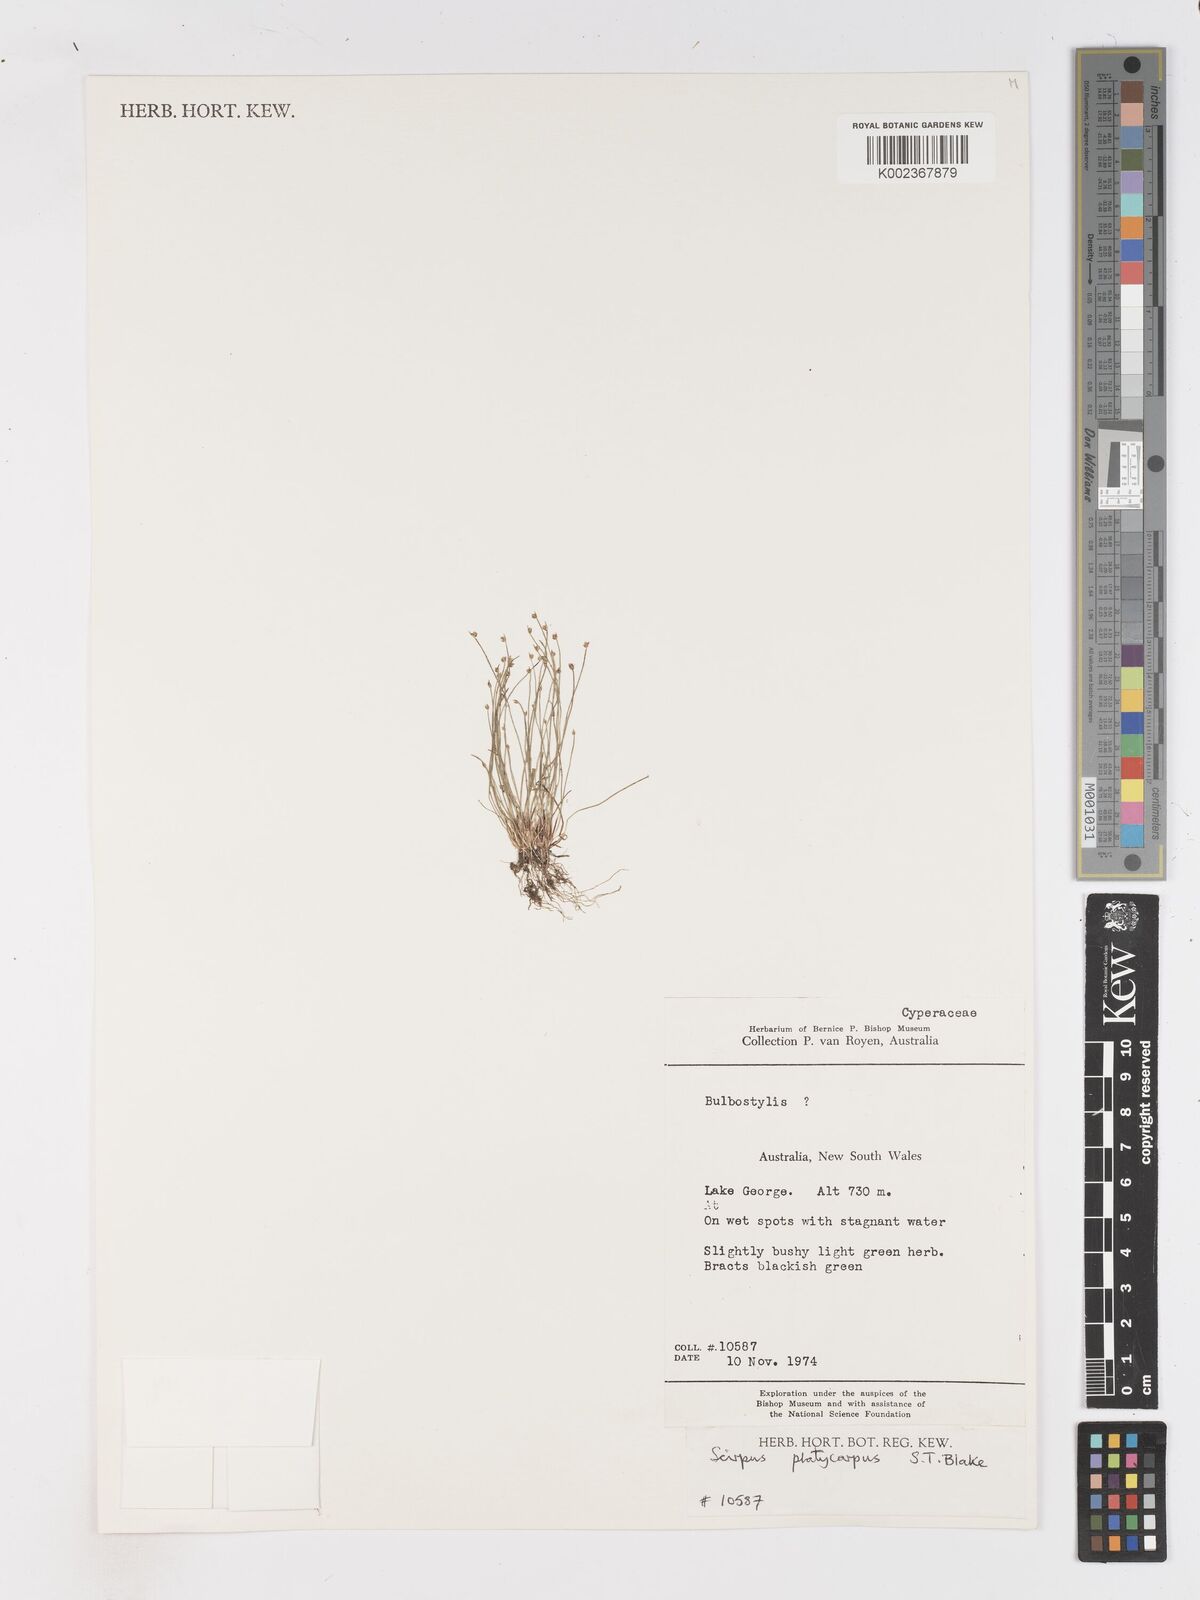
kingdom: Plantae
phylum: Tracheophyta
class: Liliopsida
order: Poales
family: Cyperaceae
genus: Isolepis
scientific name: Isolepis cernua
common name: Slender club-rush
